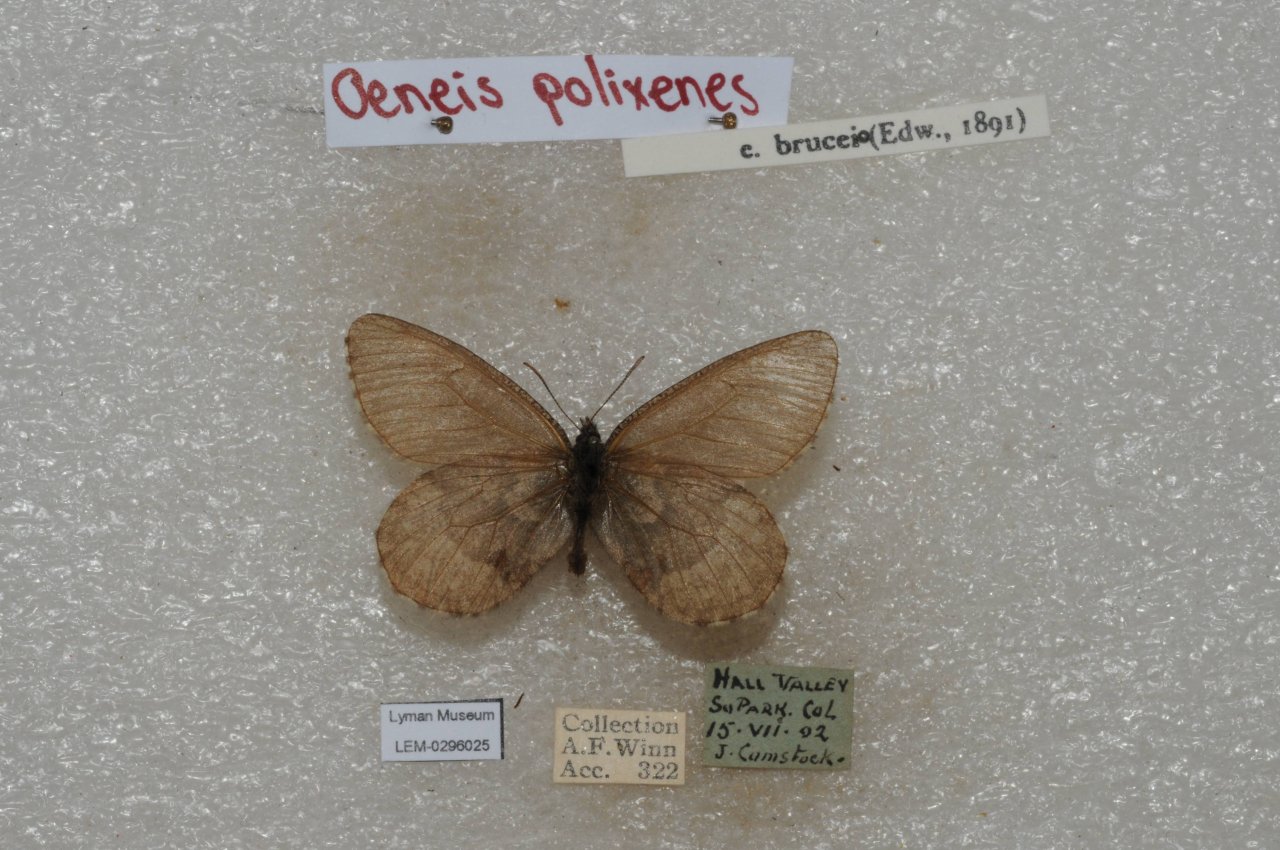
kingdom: Animalia
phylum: Arthropoda
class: Insecta
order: Lepidoptera
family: Nymphalidae
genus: Oeneis
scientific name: Oeneis bore
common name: Polixenes Arctic
